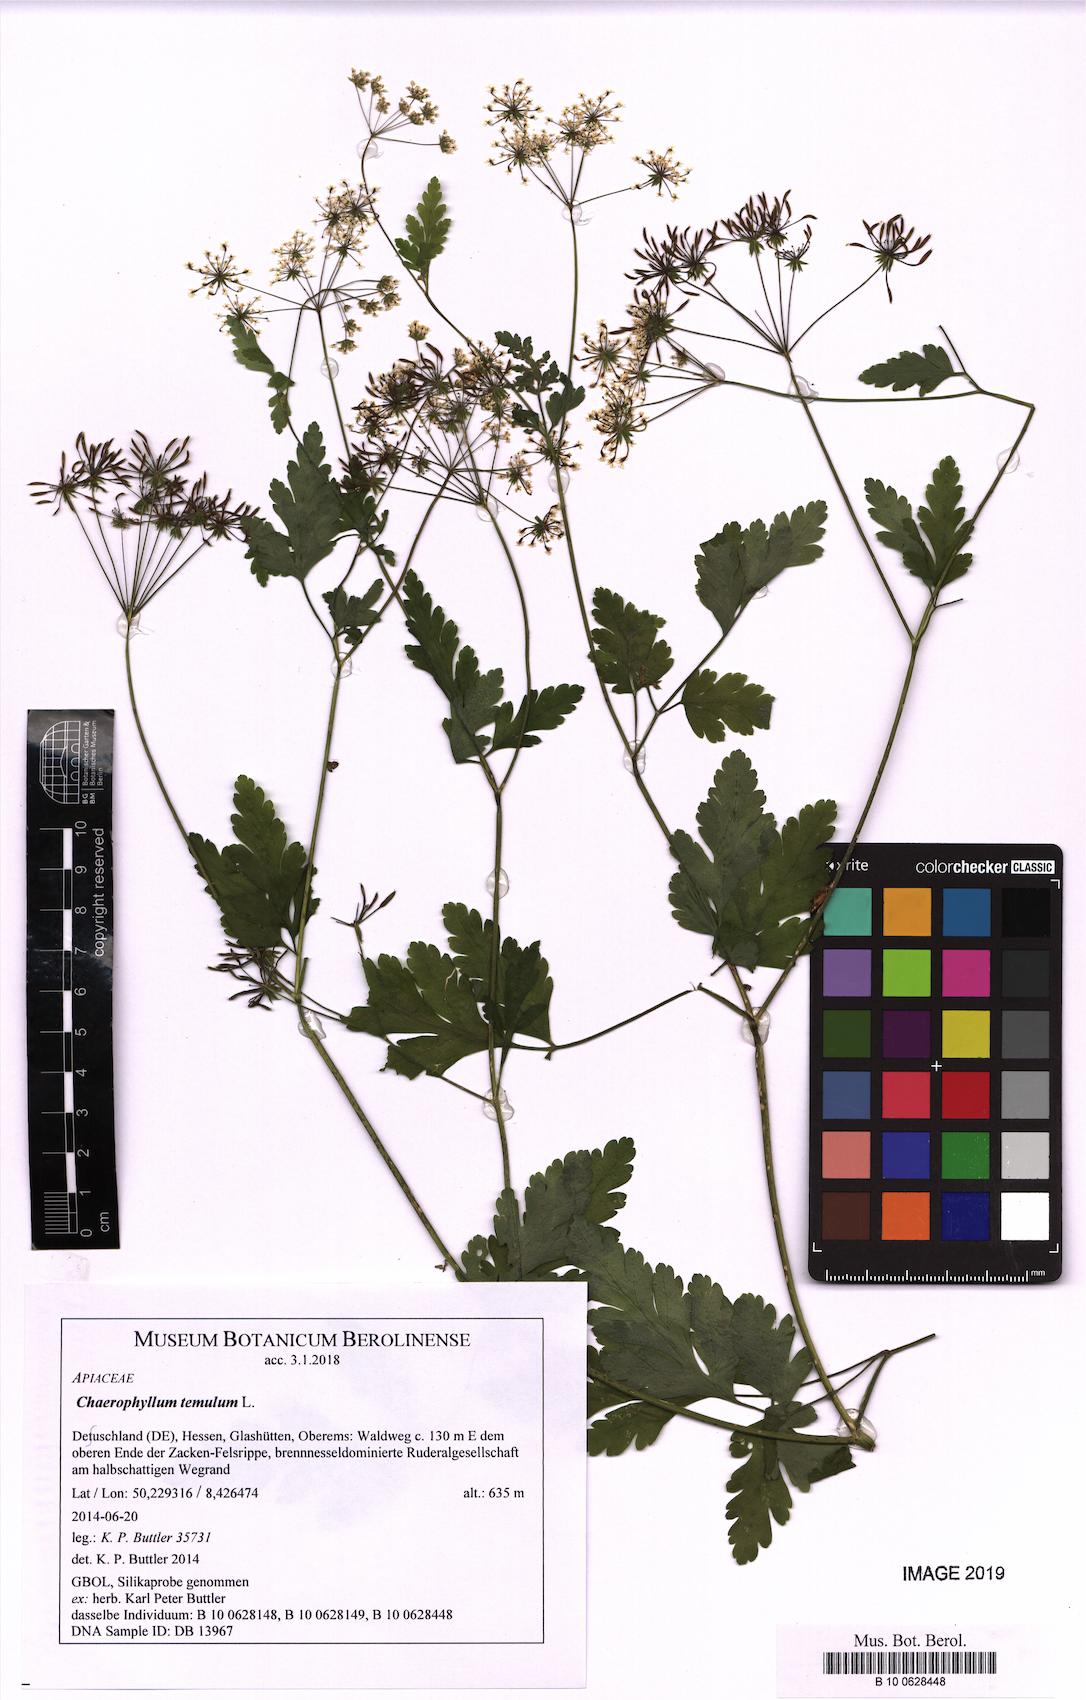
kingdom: Plantae
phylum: Tracheophyta
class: Magnoliopsida
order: Apiales
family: Apiaceae
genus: Chaerophyllum
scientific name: Chaerophyllum temulum
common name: Rough chervil
